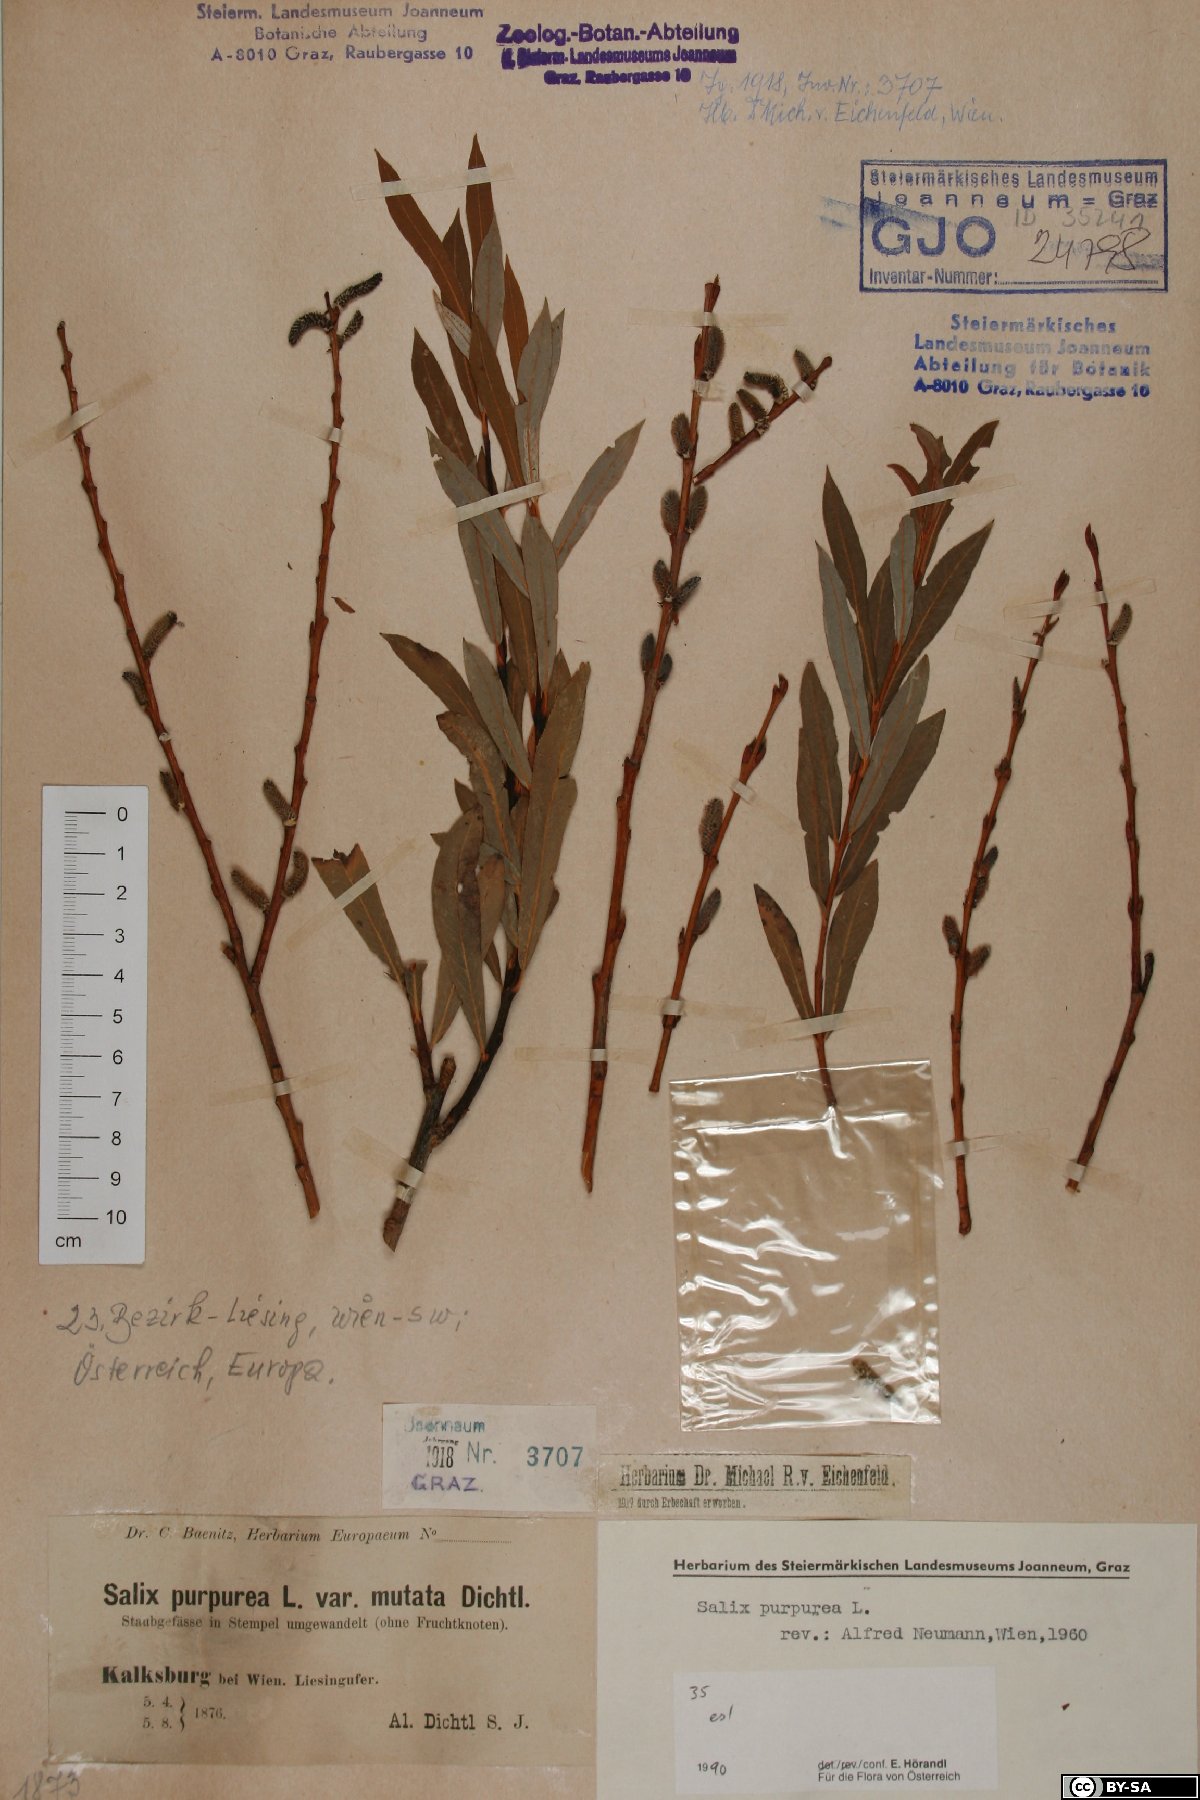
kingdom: Plantae
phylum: Tracheophyta
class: Magnoliopsida
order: Malpighiales
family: Salicaceae
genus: Salix
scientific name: Salix purpurea
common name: Purple willow
